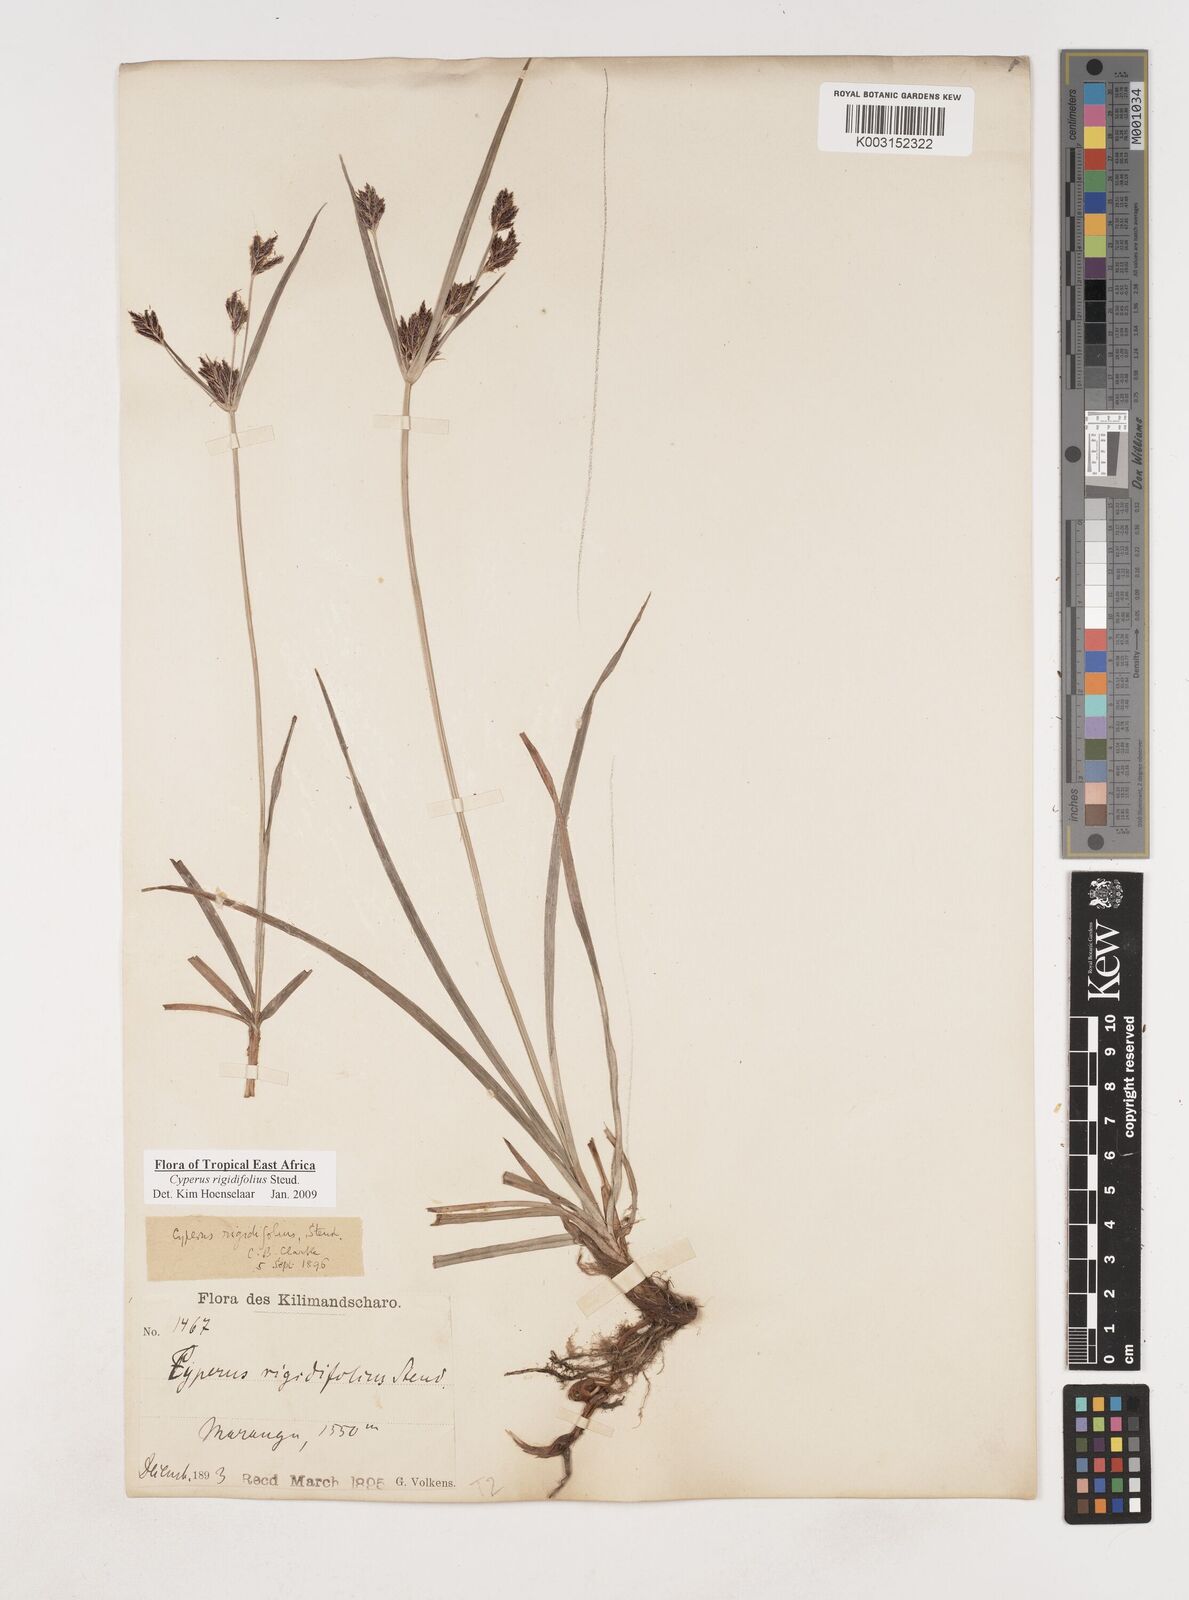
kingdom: Plantae
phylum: Tracheophyta
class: Liliopsida
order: Poales
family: Cyperaceae
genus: Cyperus
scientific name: Cyperus rigidifolius
